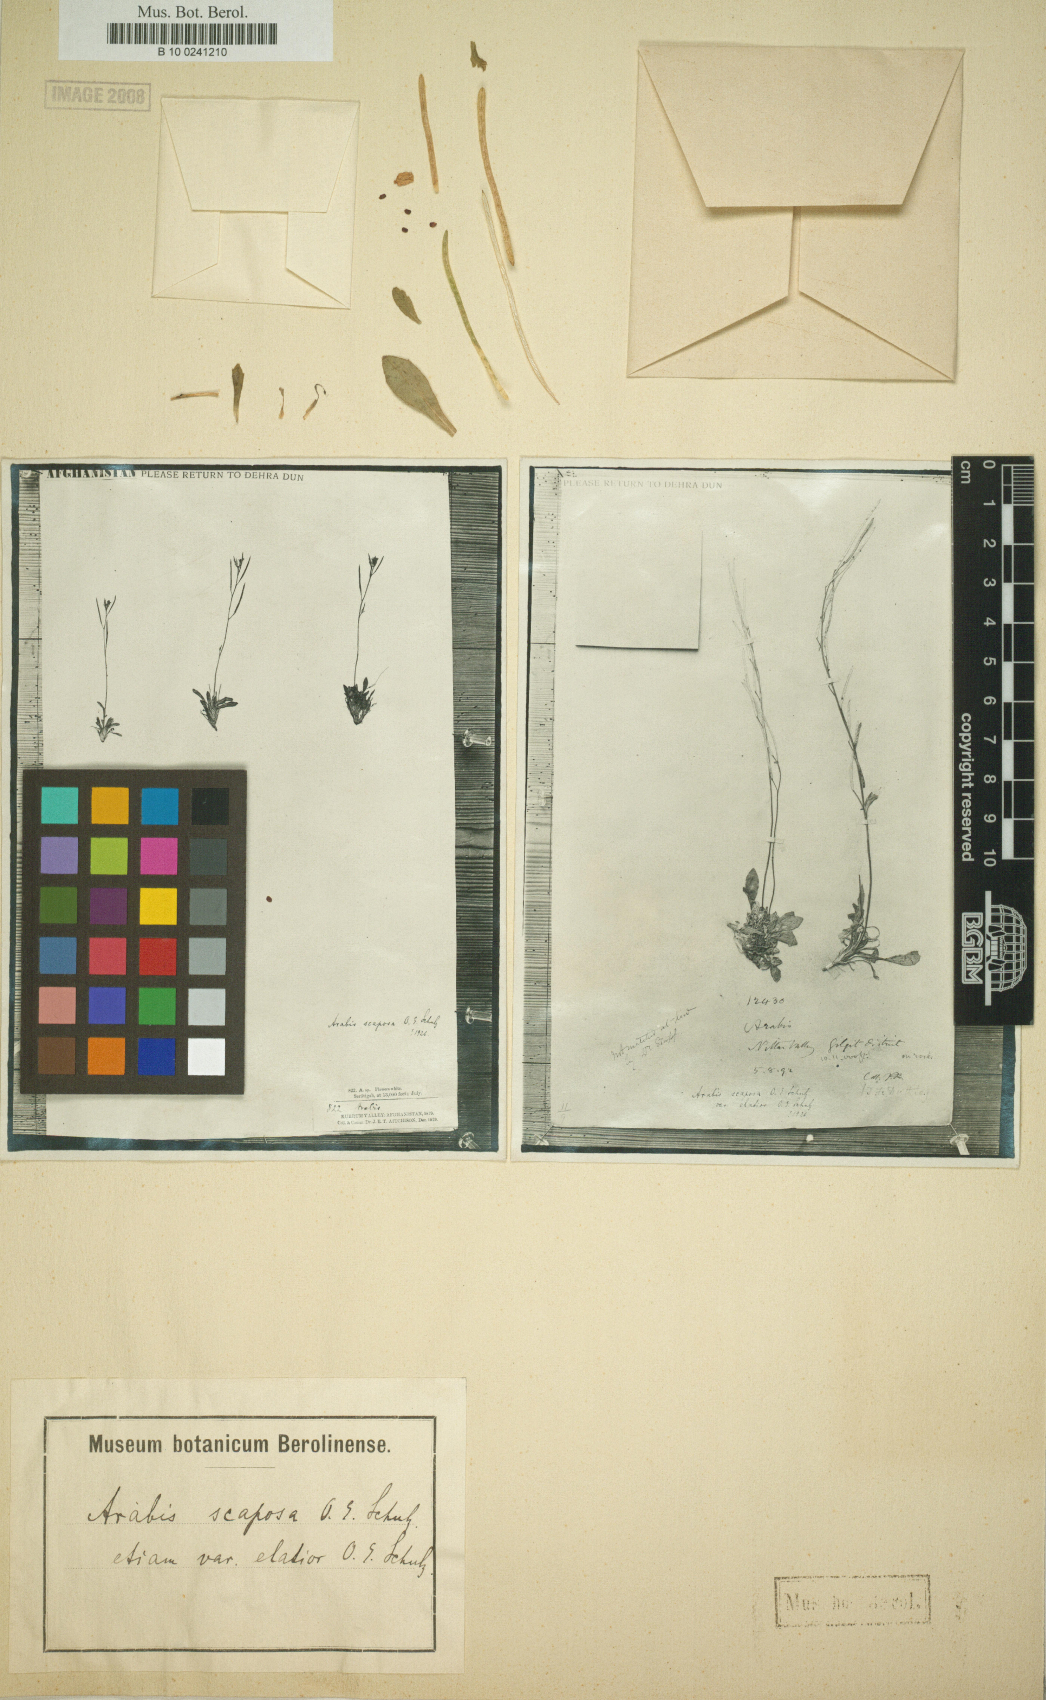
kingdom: Plantae
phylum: Tracheophyta
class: Magnoliopsida
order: Brassicales
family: Brassicaceae
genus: Scapiarabis
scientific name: Scapiarabis saxicola
